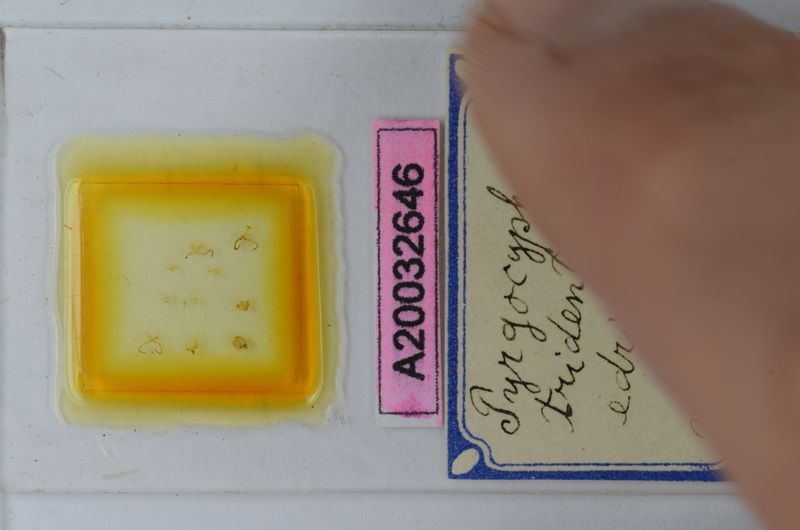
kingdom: Animalia
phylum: Arthropoda
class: Diplopoda
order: Chordeumatida
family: Craspedosomatidae
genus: Pyrgocyphosoma
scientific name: Pyrgocyphosoma edrinum
